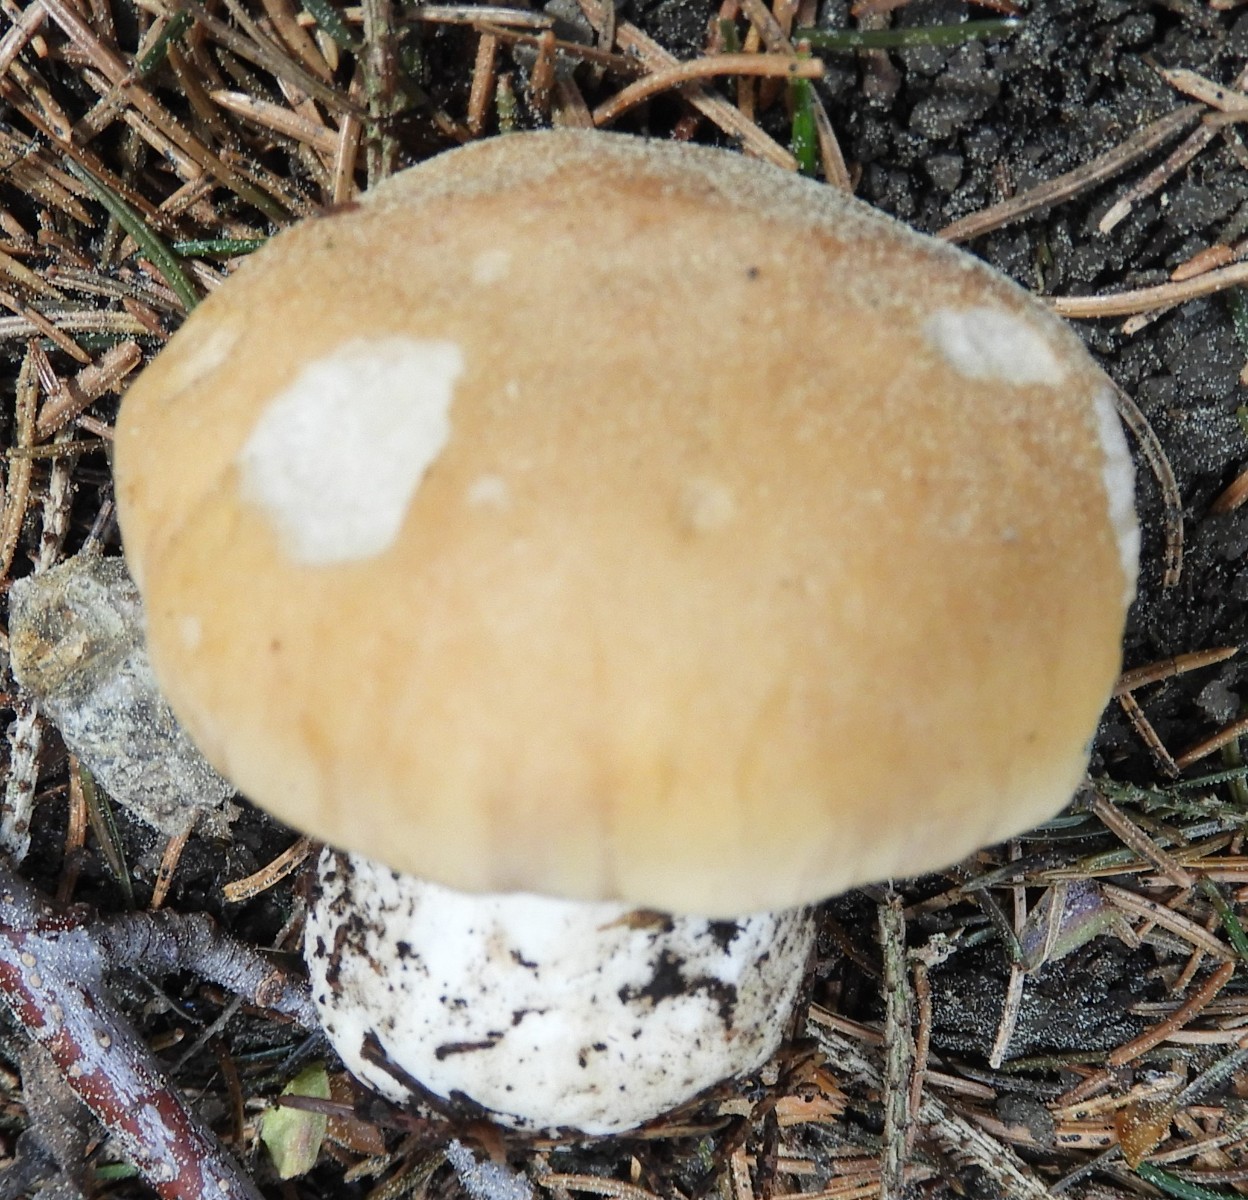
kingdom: Fungi
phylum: Basidiomycota
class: Agaricomycetes
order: Agaricales
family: Lyophyllaceae
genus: Calocybe
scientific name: Calocybe gambosa
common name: vårmusseron
